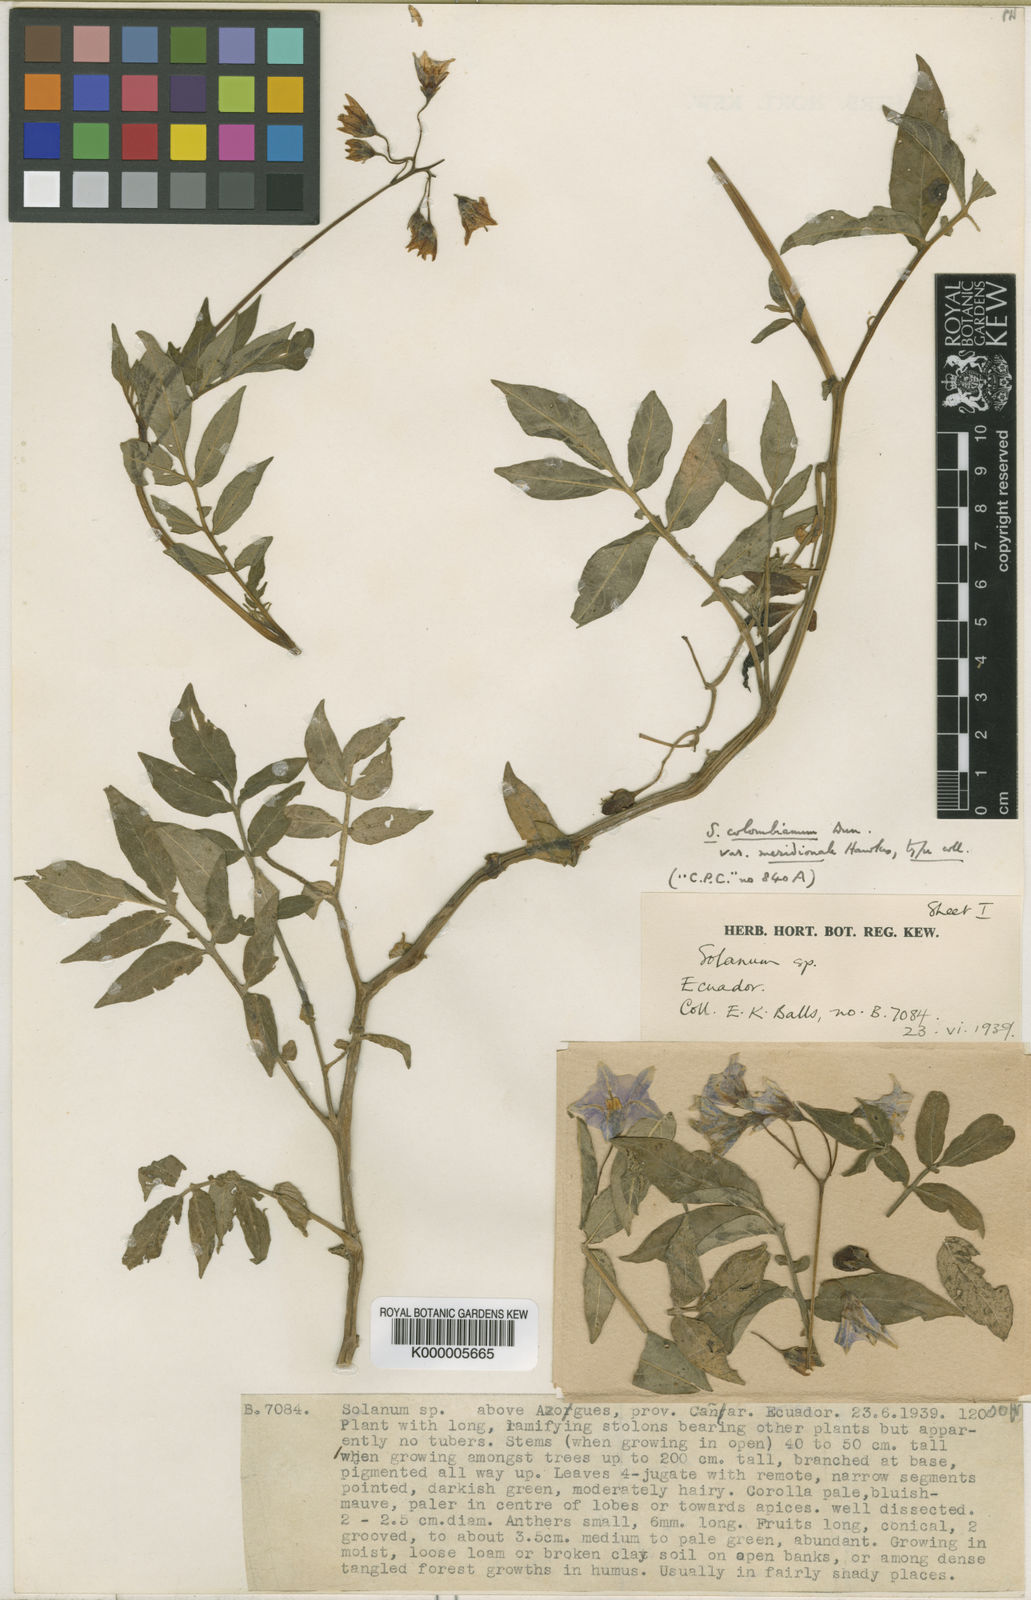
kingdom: Plantae
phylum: Tracheophyta
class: Magnoliopsida
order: Solanales
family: Solanaceae
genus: Solanum
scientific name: Solanum colombianum
